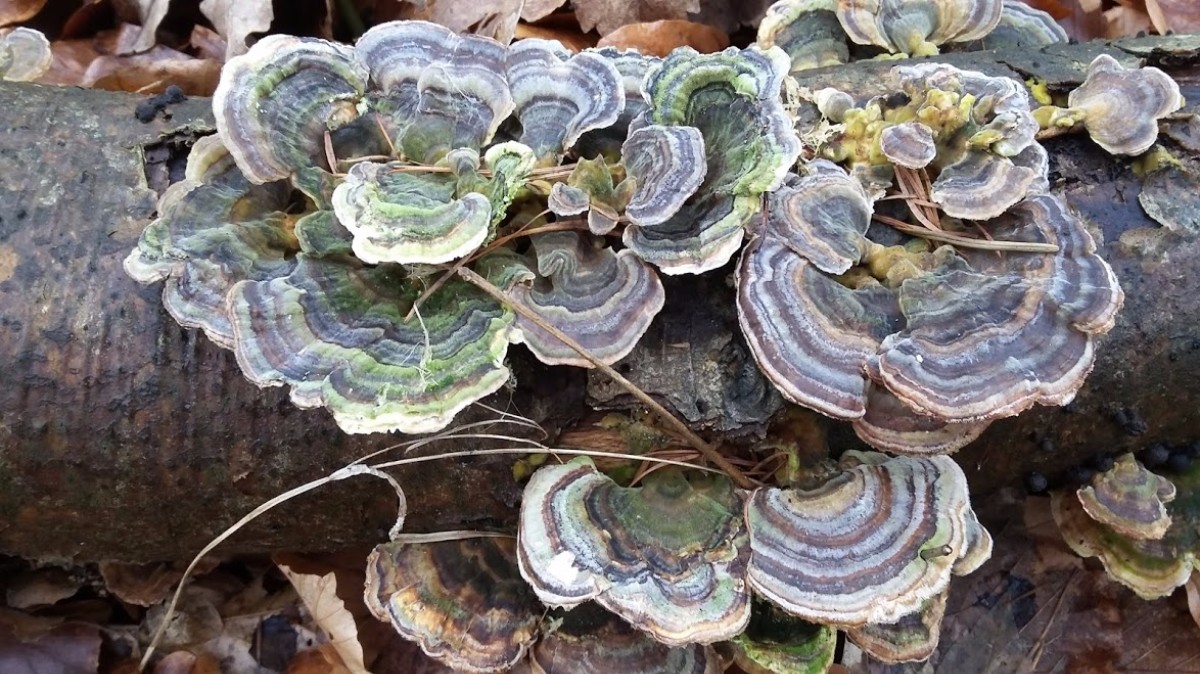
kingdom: Fungi
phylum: Basidiomycota
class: Agaricomycetes
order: Polyporales
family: Polyporaceae
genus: Trametes
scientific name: Trametes versicolor
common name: broget læderporesvamp
